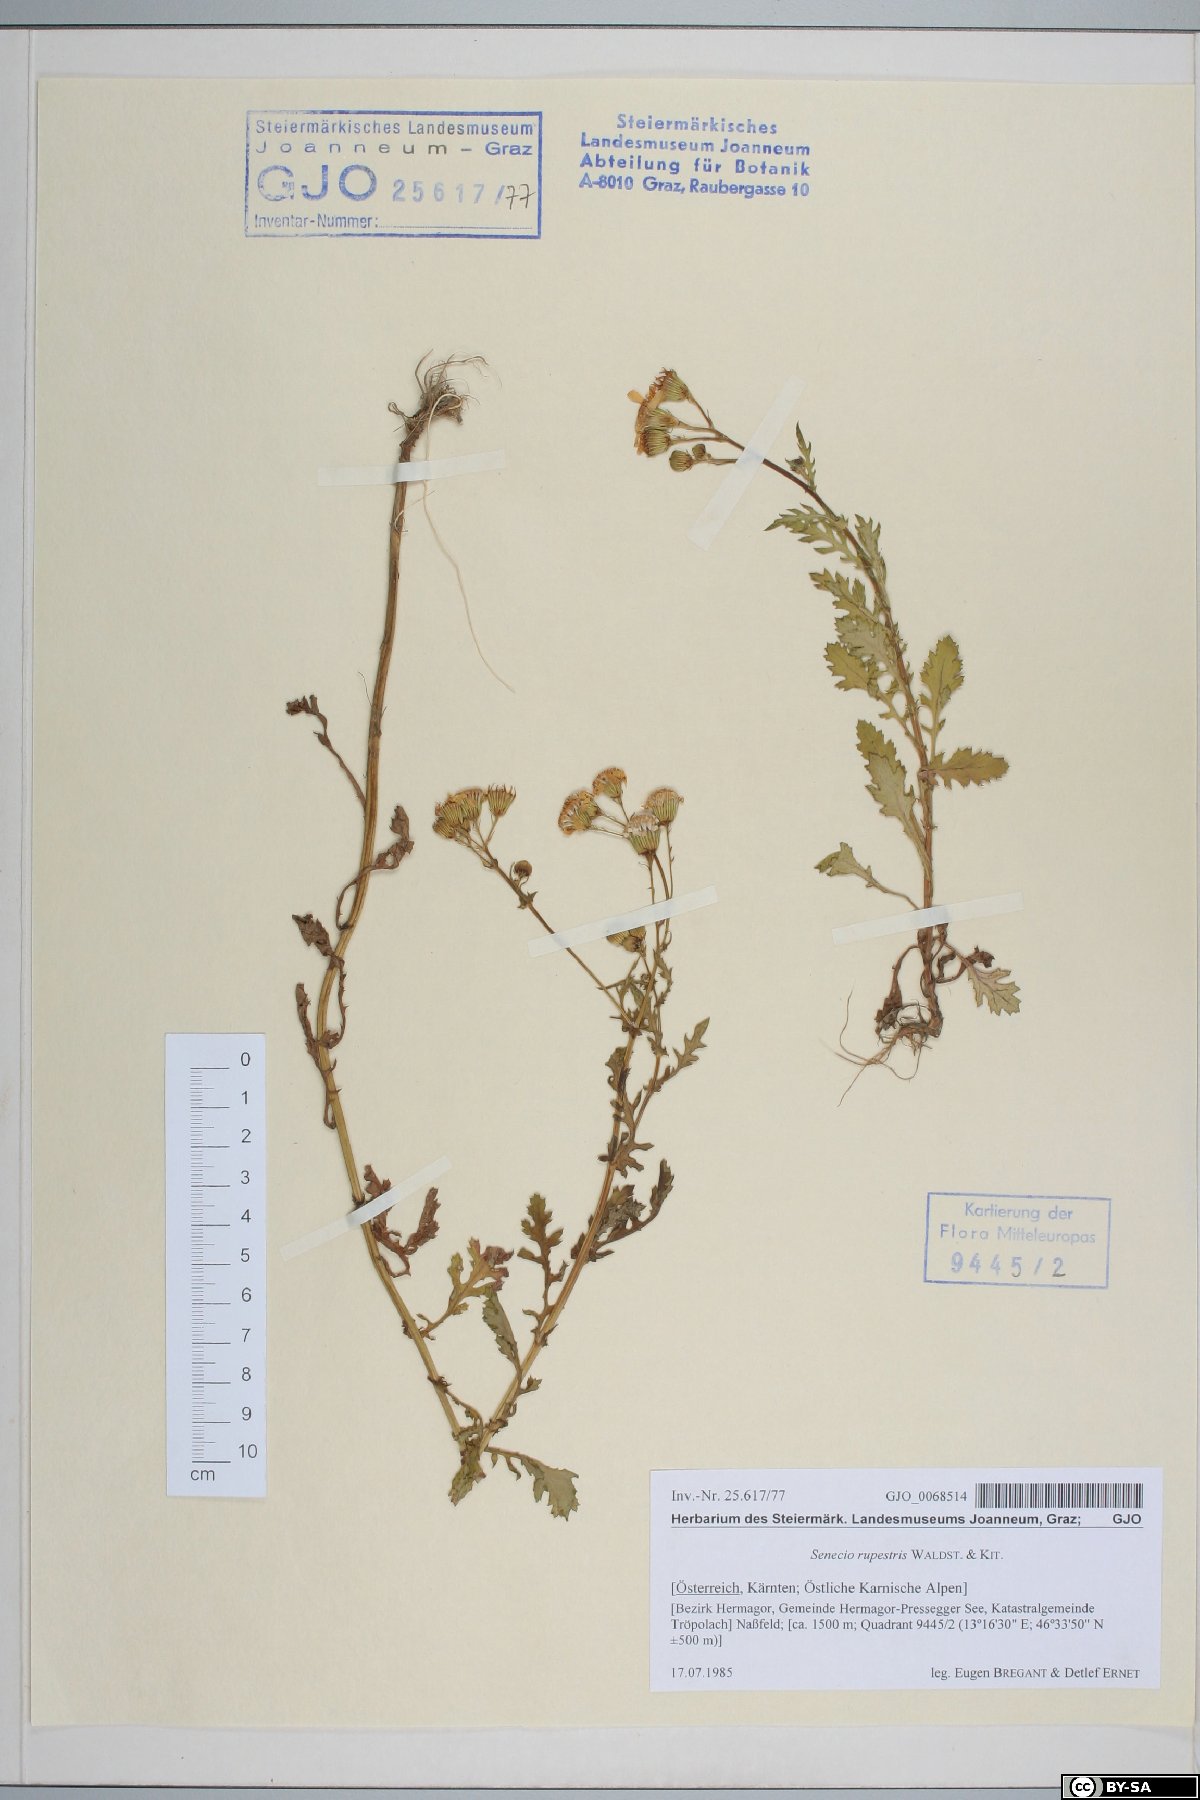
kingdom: Plantae
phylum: Tracheophyta
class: Magnoliopsida
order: Asterales
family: Asteraceae
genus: Senecio
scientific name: Senecio rupestris
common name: Rock ragwort
